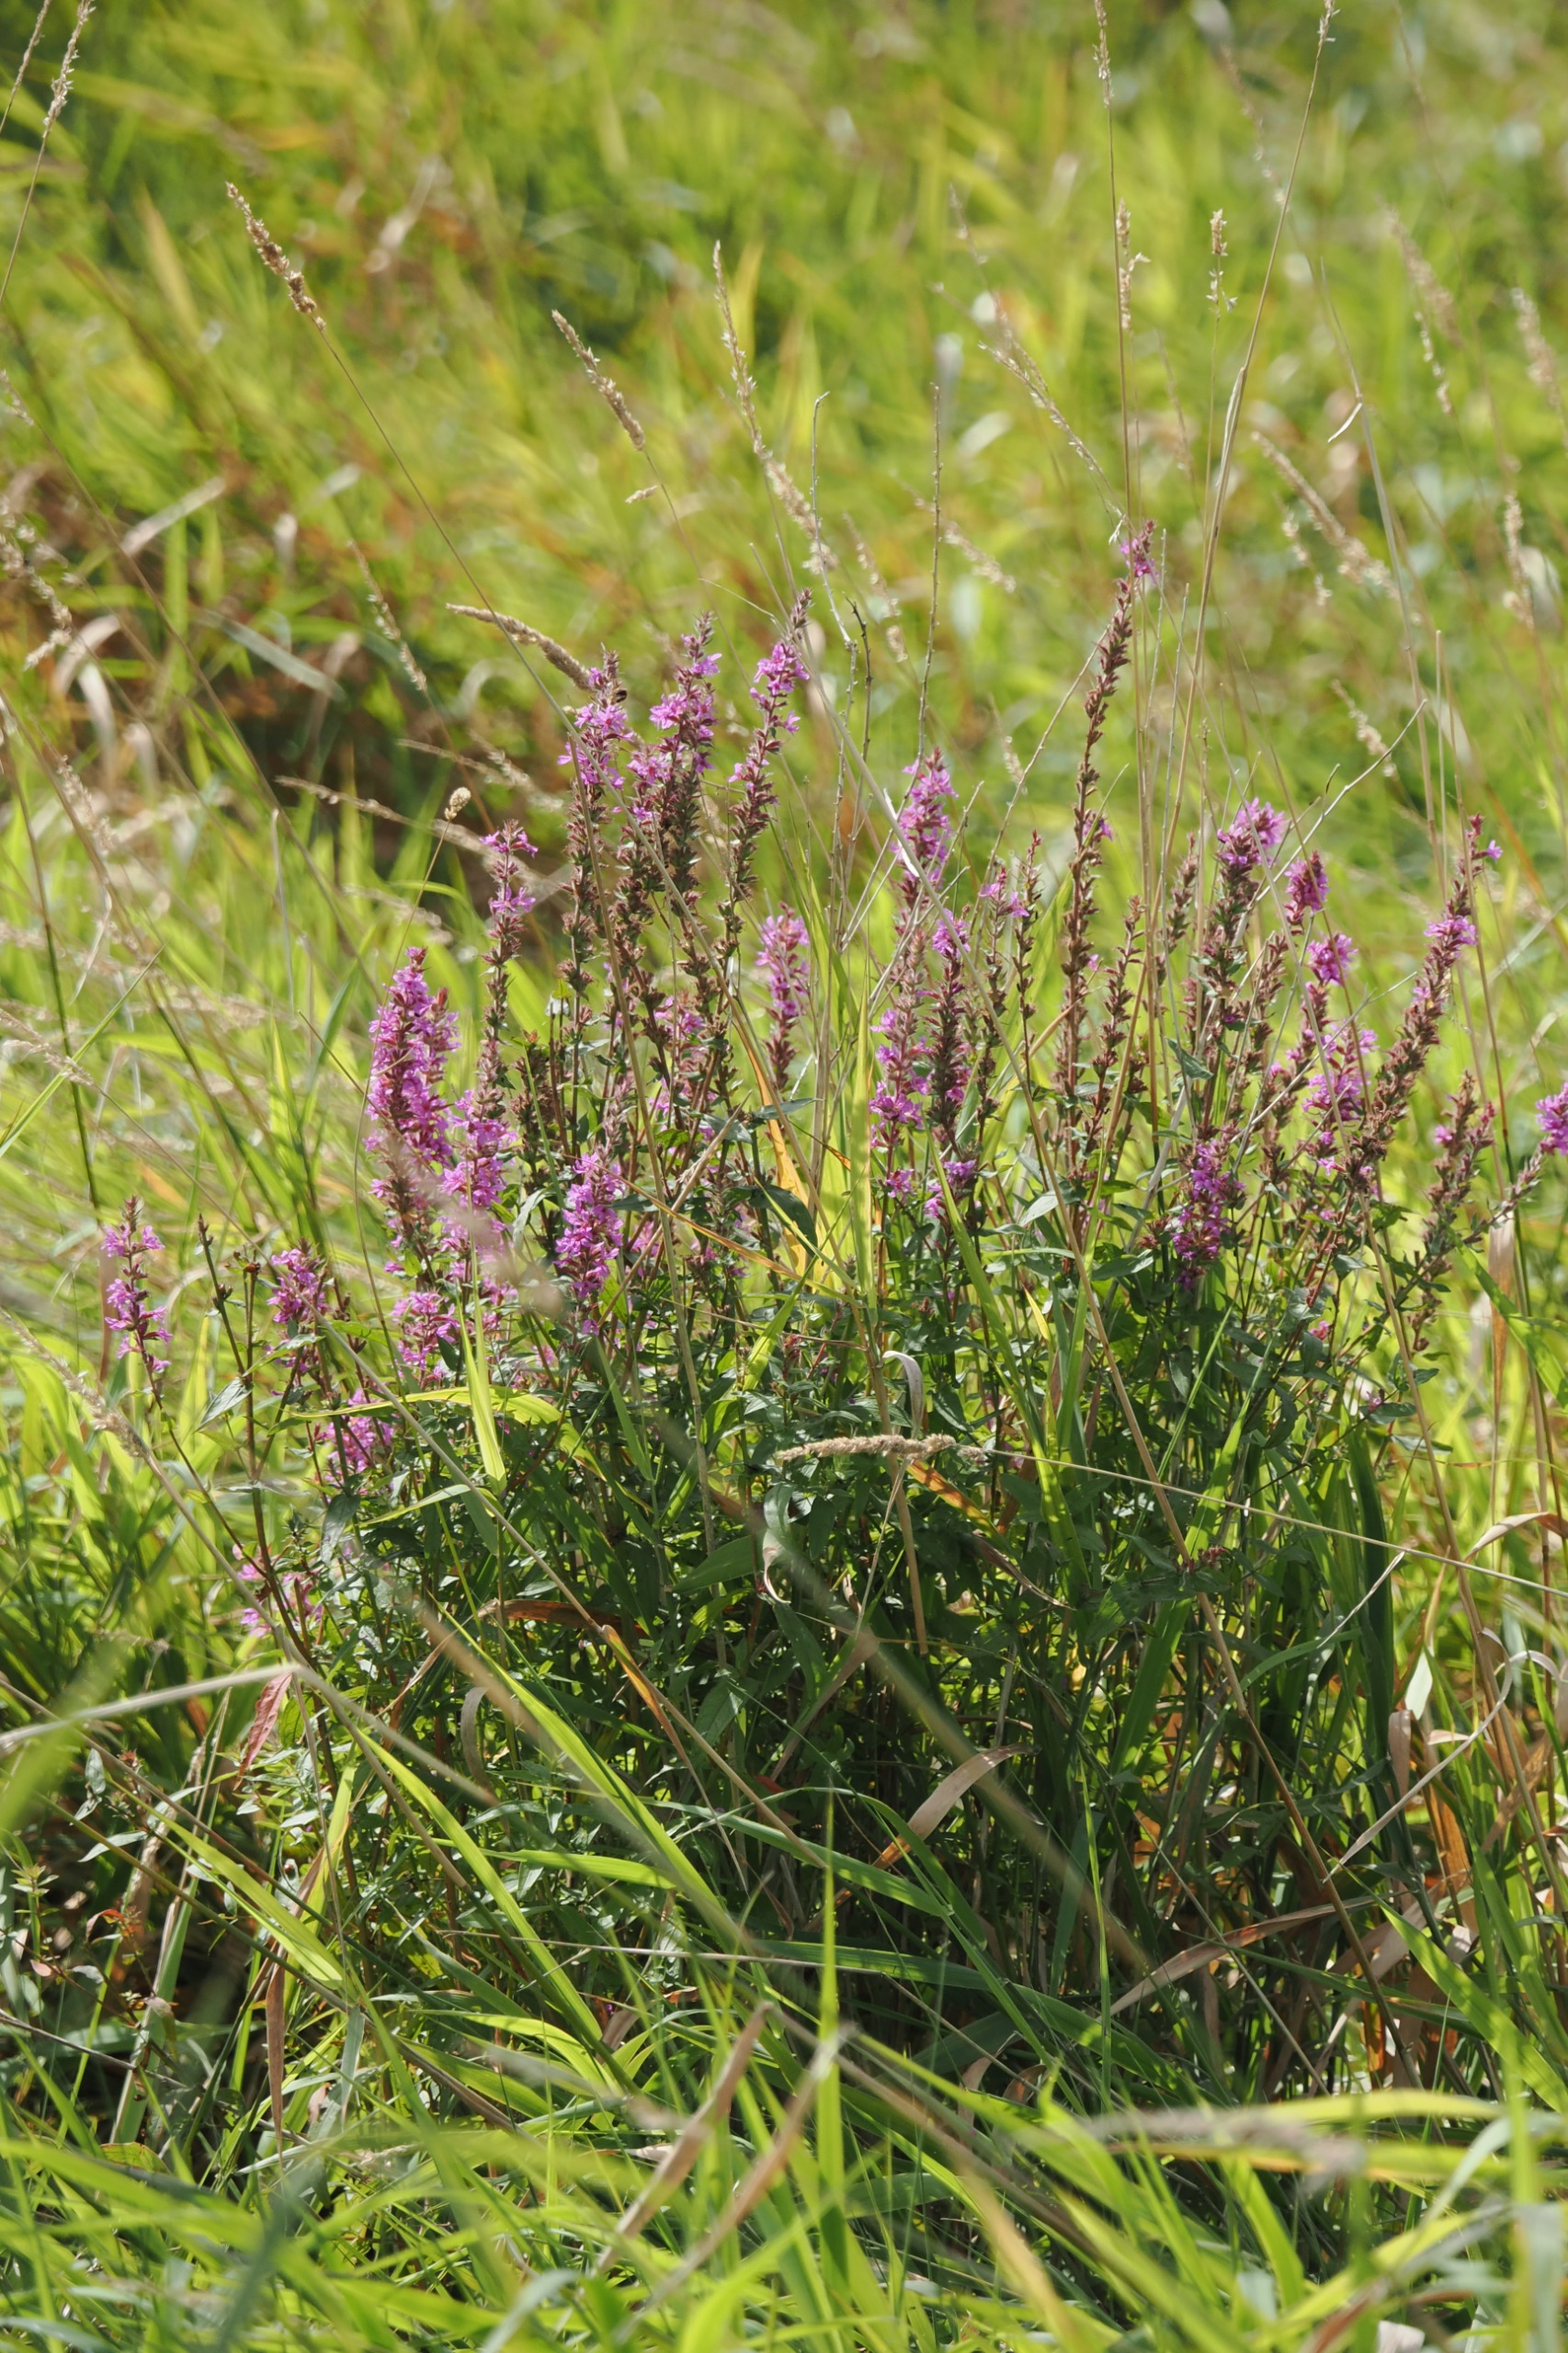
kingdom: Plantae
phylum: Tracheophyta
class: Magnoliopsida
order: Myrtales
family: Lythraceae
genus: Lythrum
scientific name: Lythrum salicaria
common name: Kattehale
